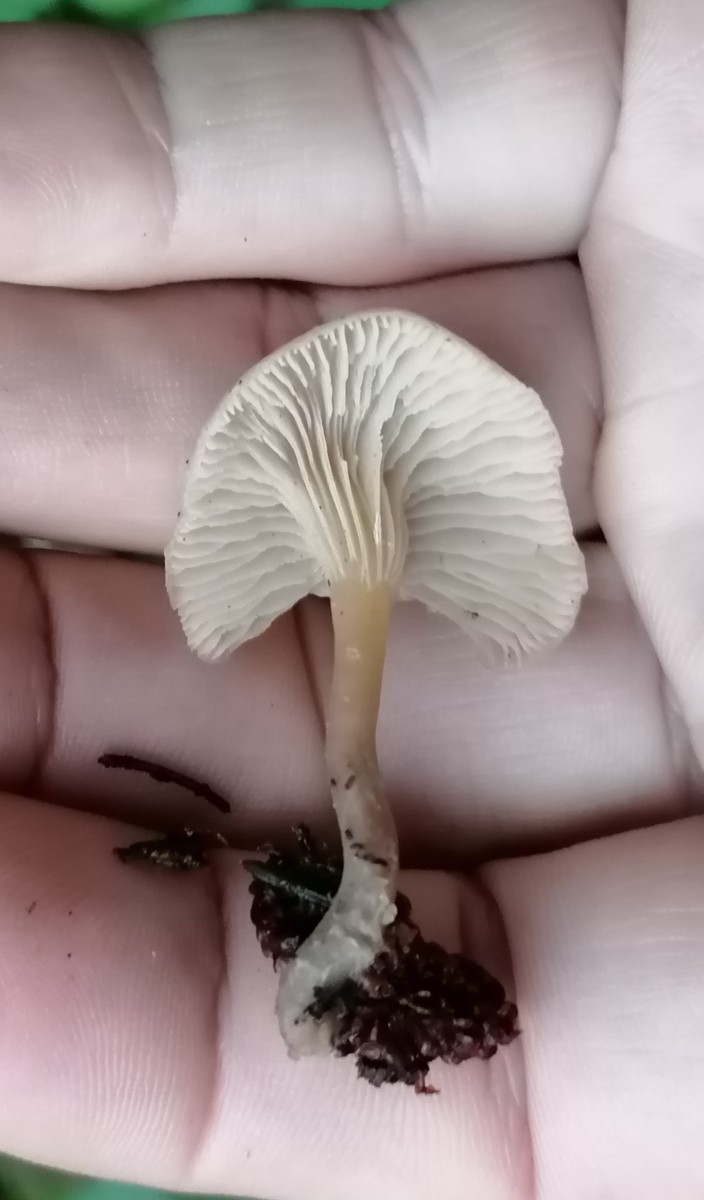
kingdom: Fungi
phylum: Basidiomycota
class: Agaricomycetes
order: Agaricales
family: Tricholomataceae
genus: Clitocybe
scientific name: Clitocybe
